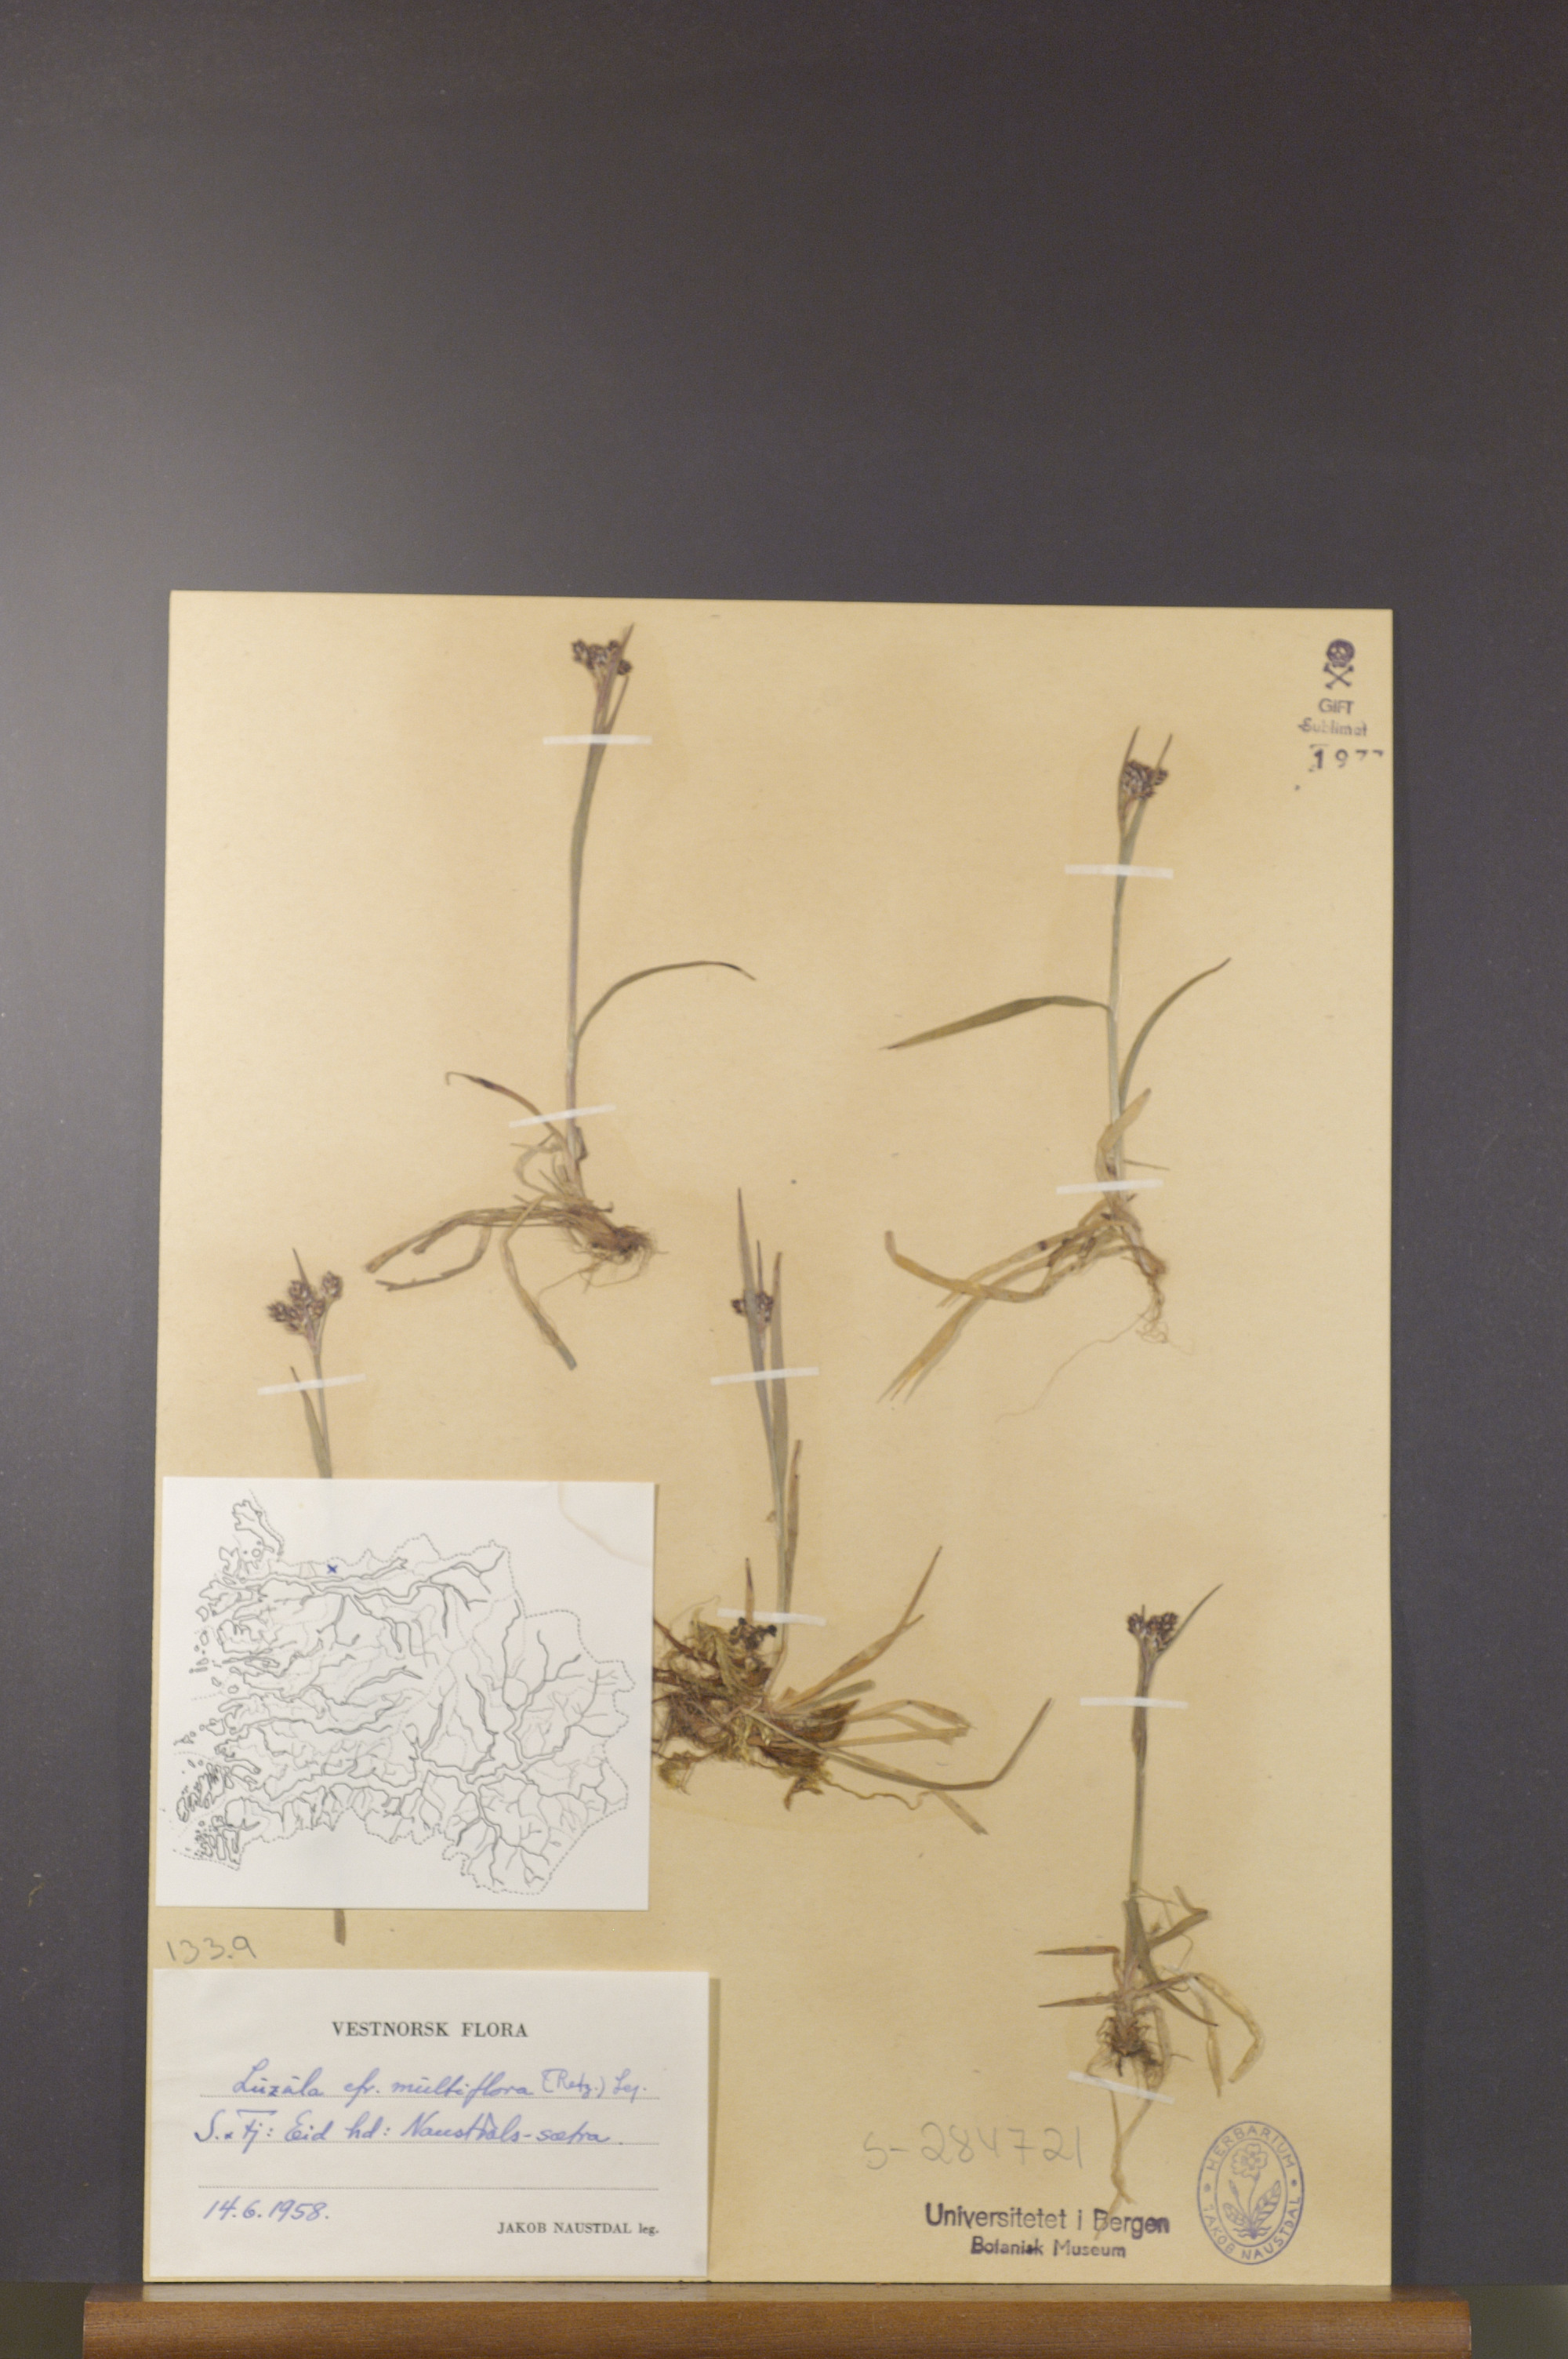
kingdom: Plantae
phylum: Tracheophyta
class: Liliopsida
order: Poales
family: Juncaceae
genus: Luzula
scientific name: Luzula multiflora
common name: Heath wood-rush
